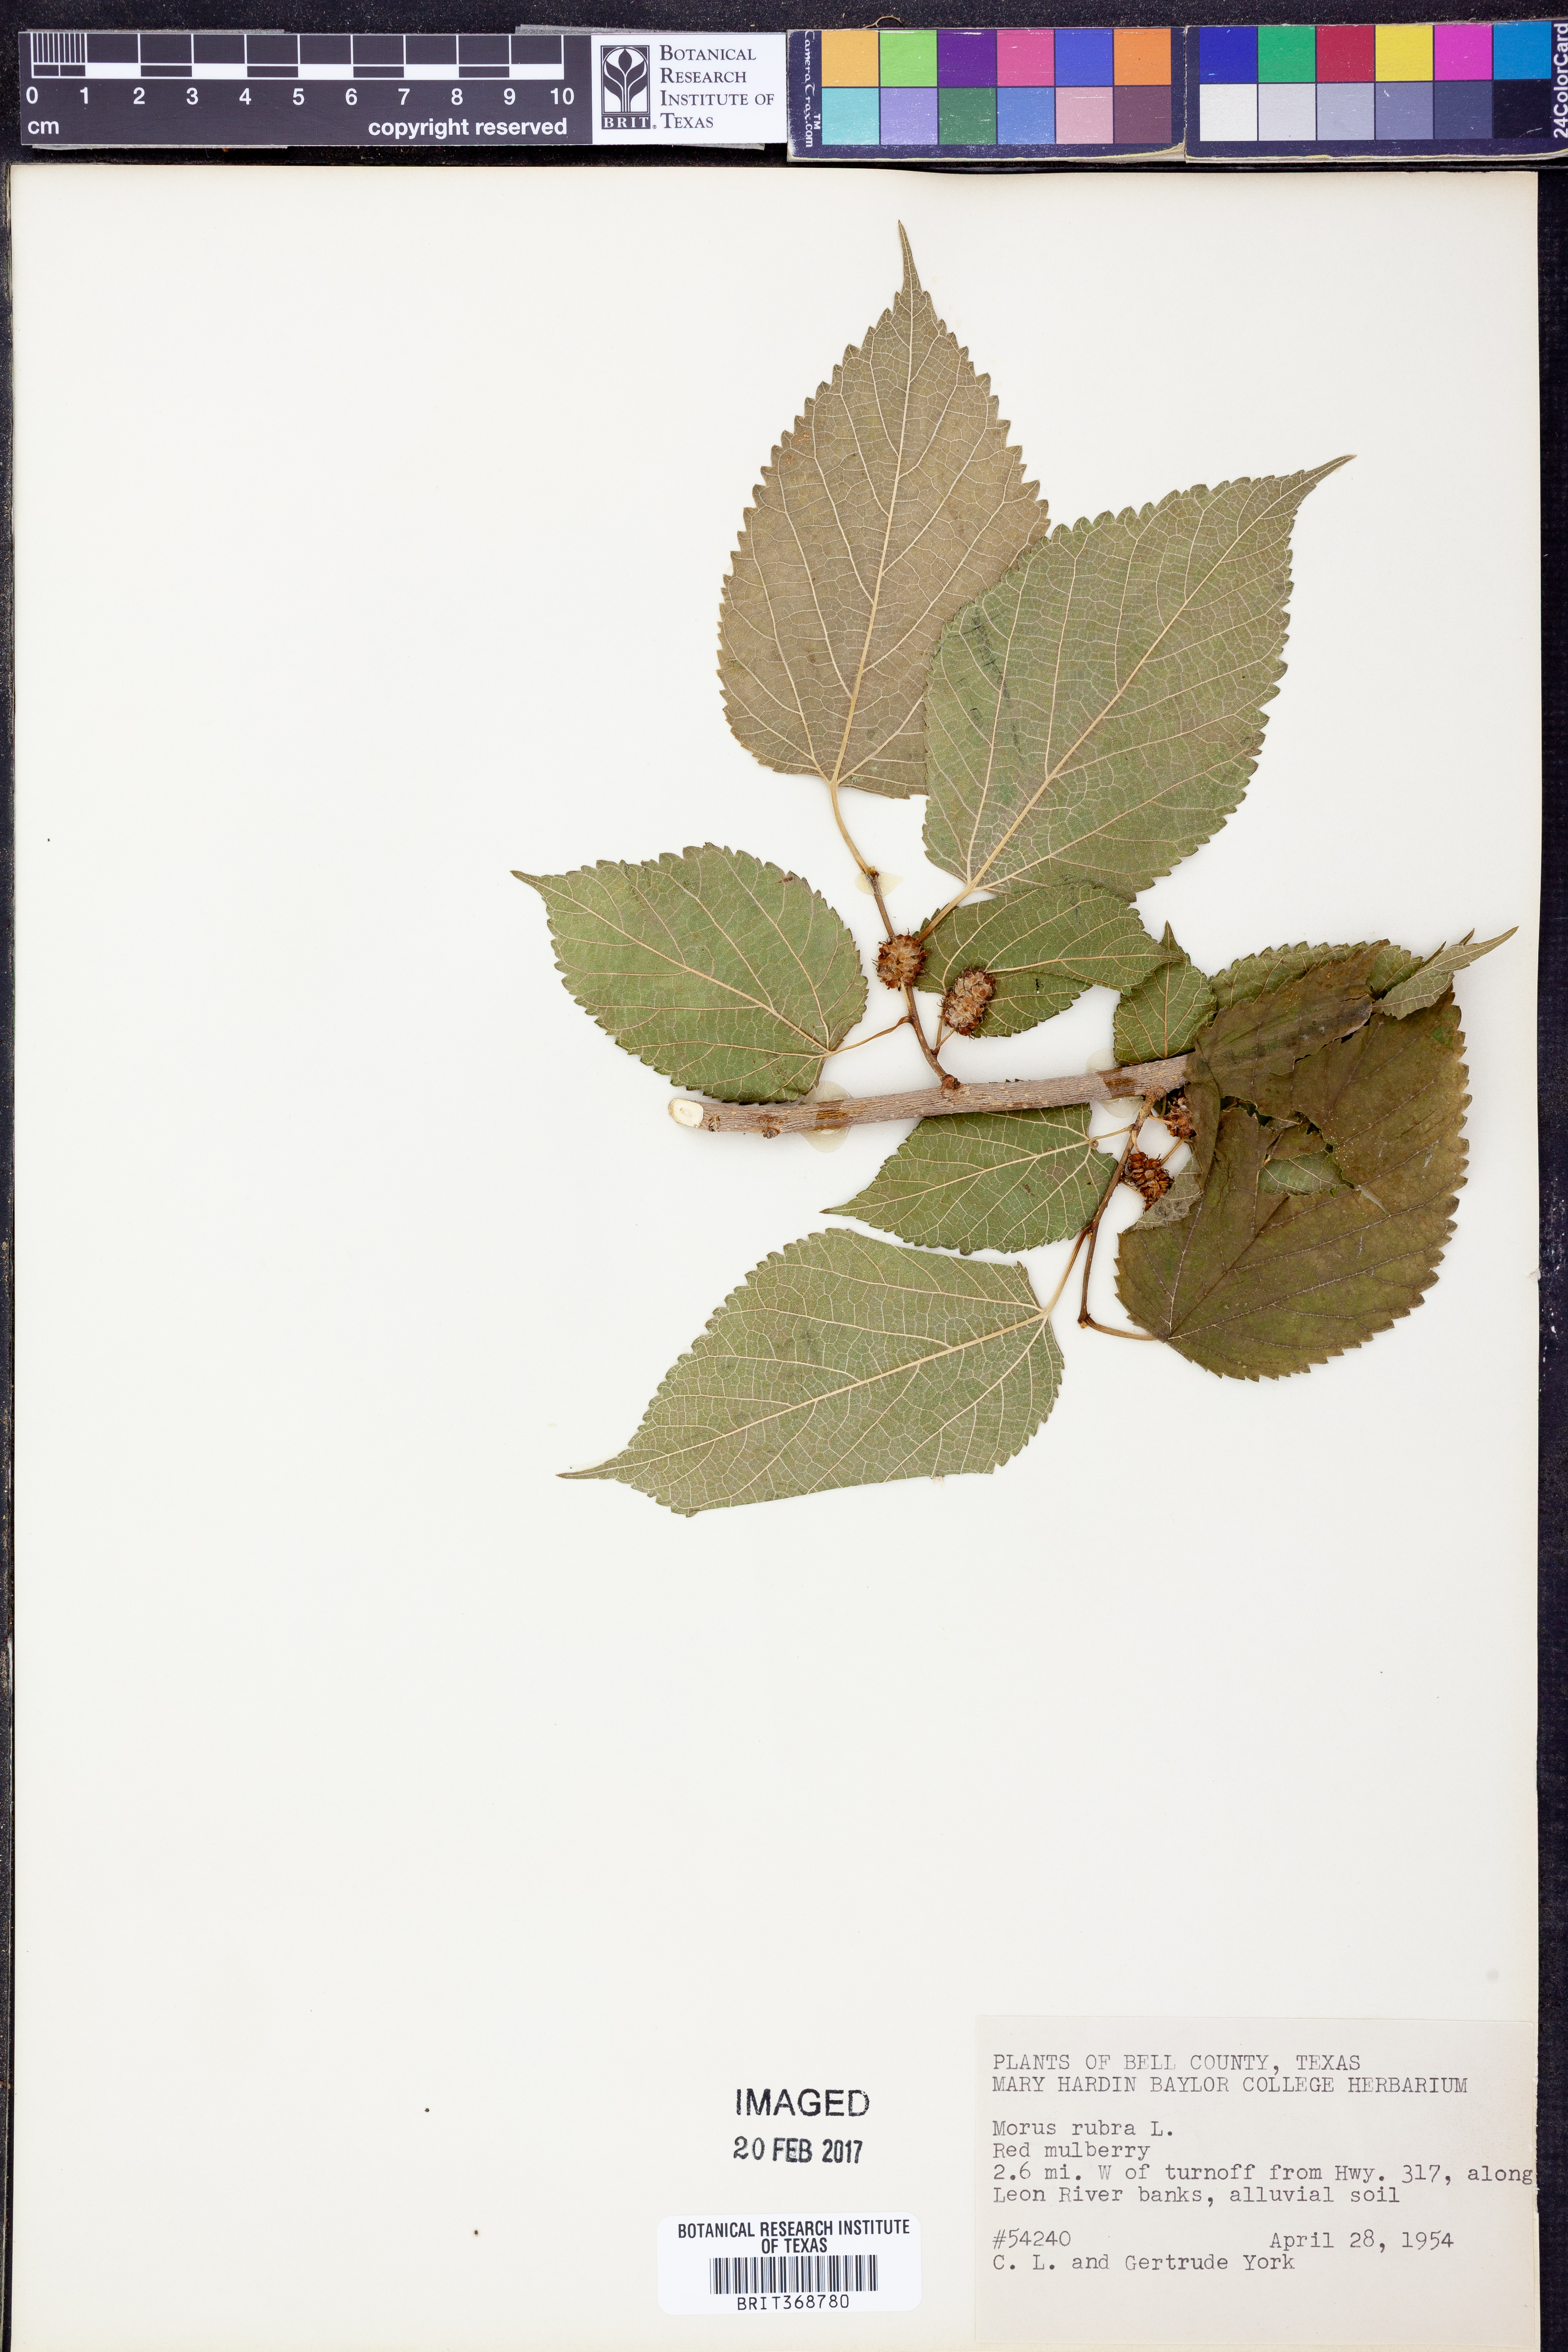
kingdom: Plantae
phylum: Tracheophyta
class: Magnoliopsida
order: Rosales
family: Moraceae
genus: Morus
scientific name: Morus rubra
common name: Red mulberry
